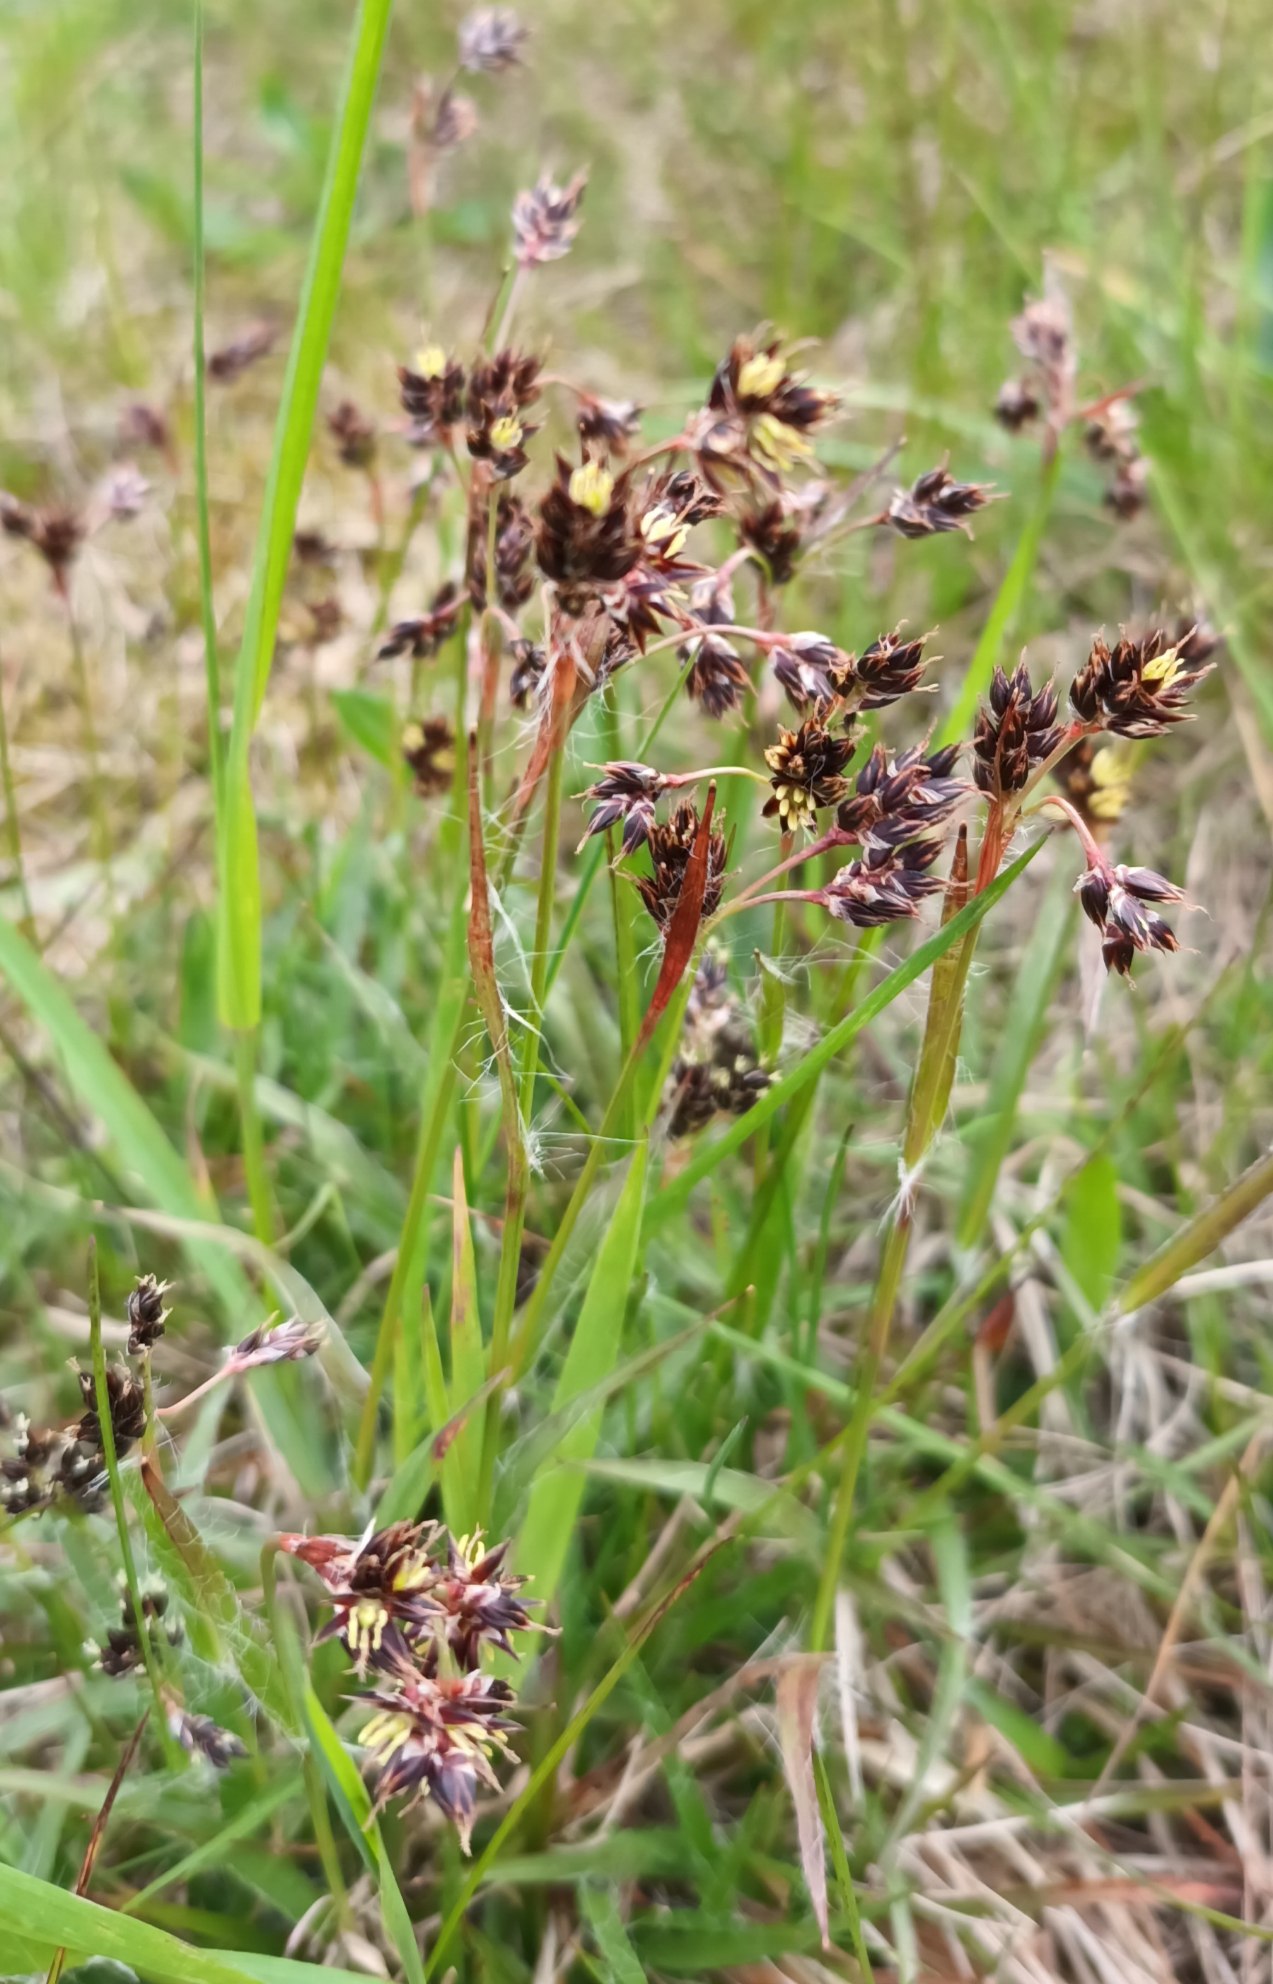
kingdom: Plantae
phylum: Tracheophyta
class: Liliopsida
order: Poales
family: Juncaceae
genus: Luzula
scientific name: Luzula campestris
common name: Mark-frytle
